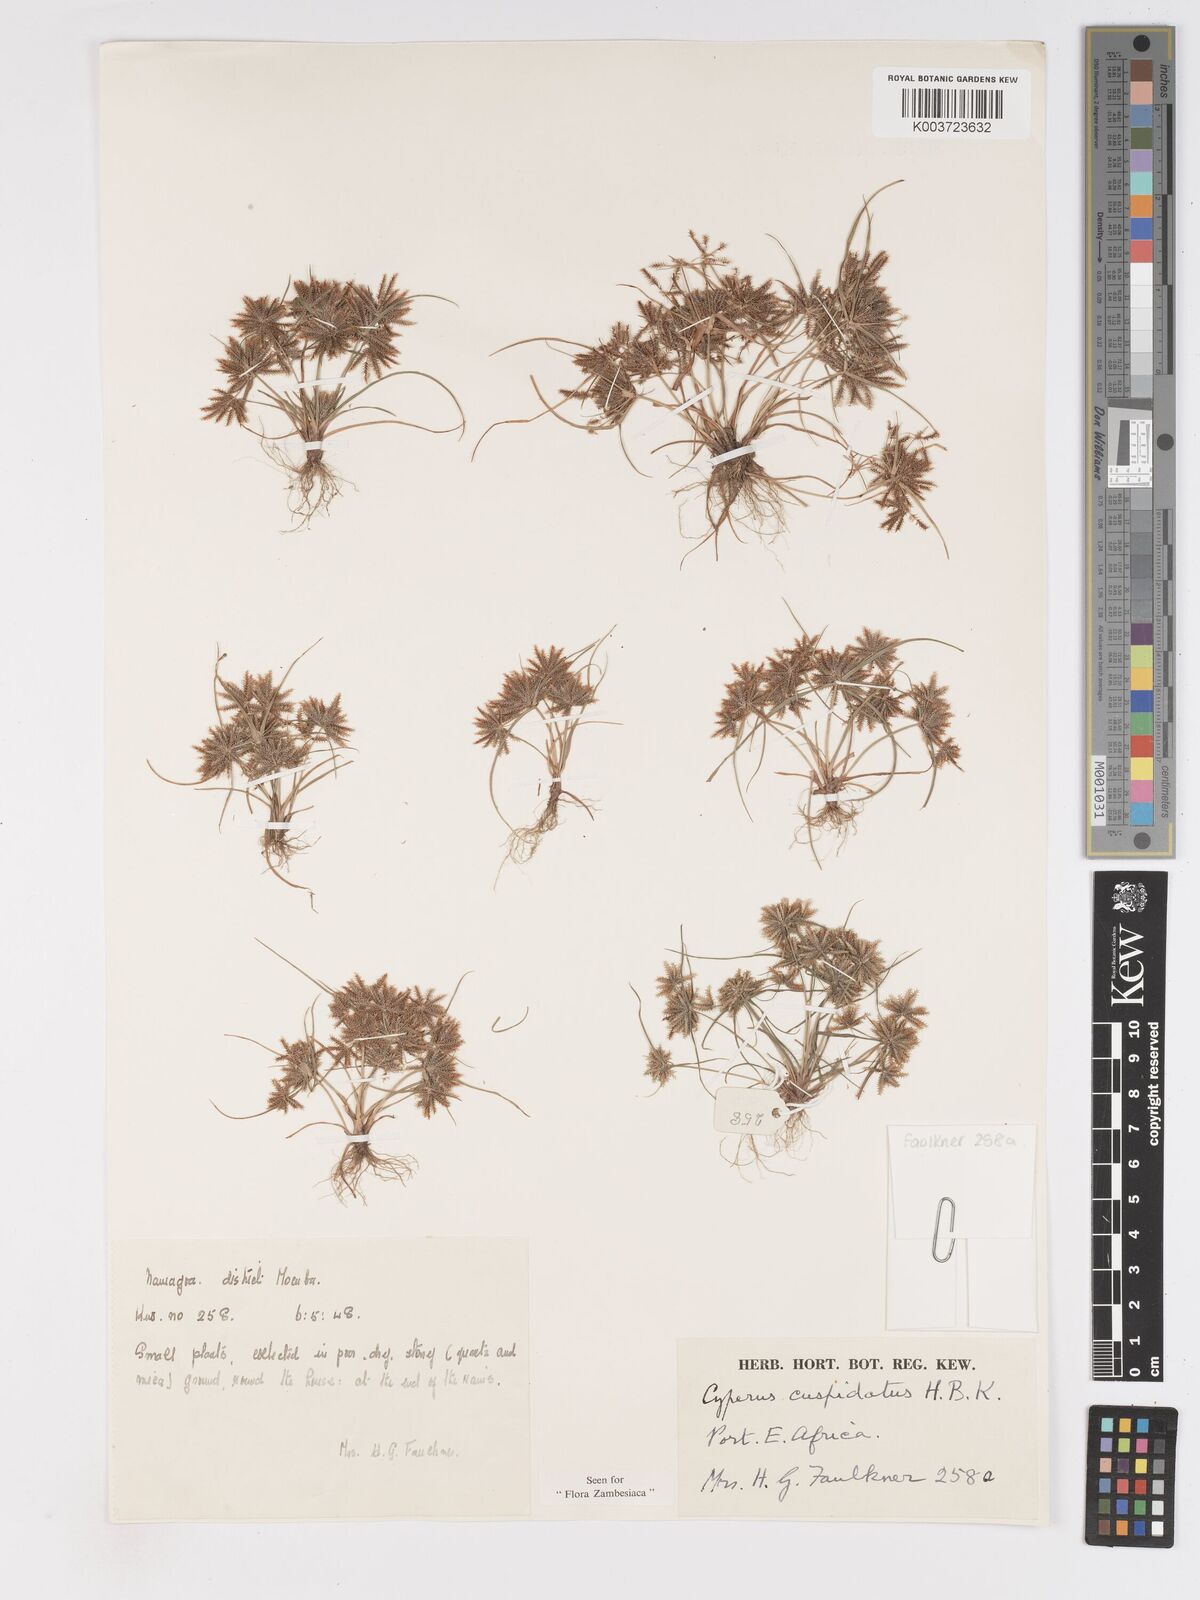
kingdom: Plantae
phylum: Tracheophyta
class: Liliopsida
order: Poales
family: Cyperaceae
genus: Cyperus
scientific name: Cyperus betafensis
